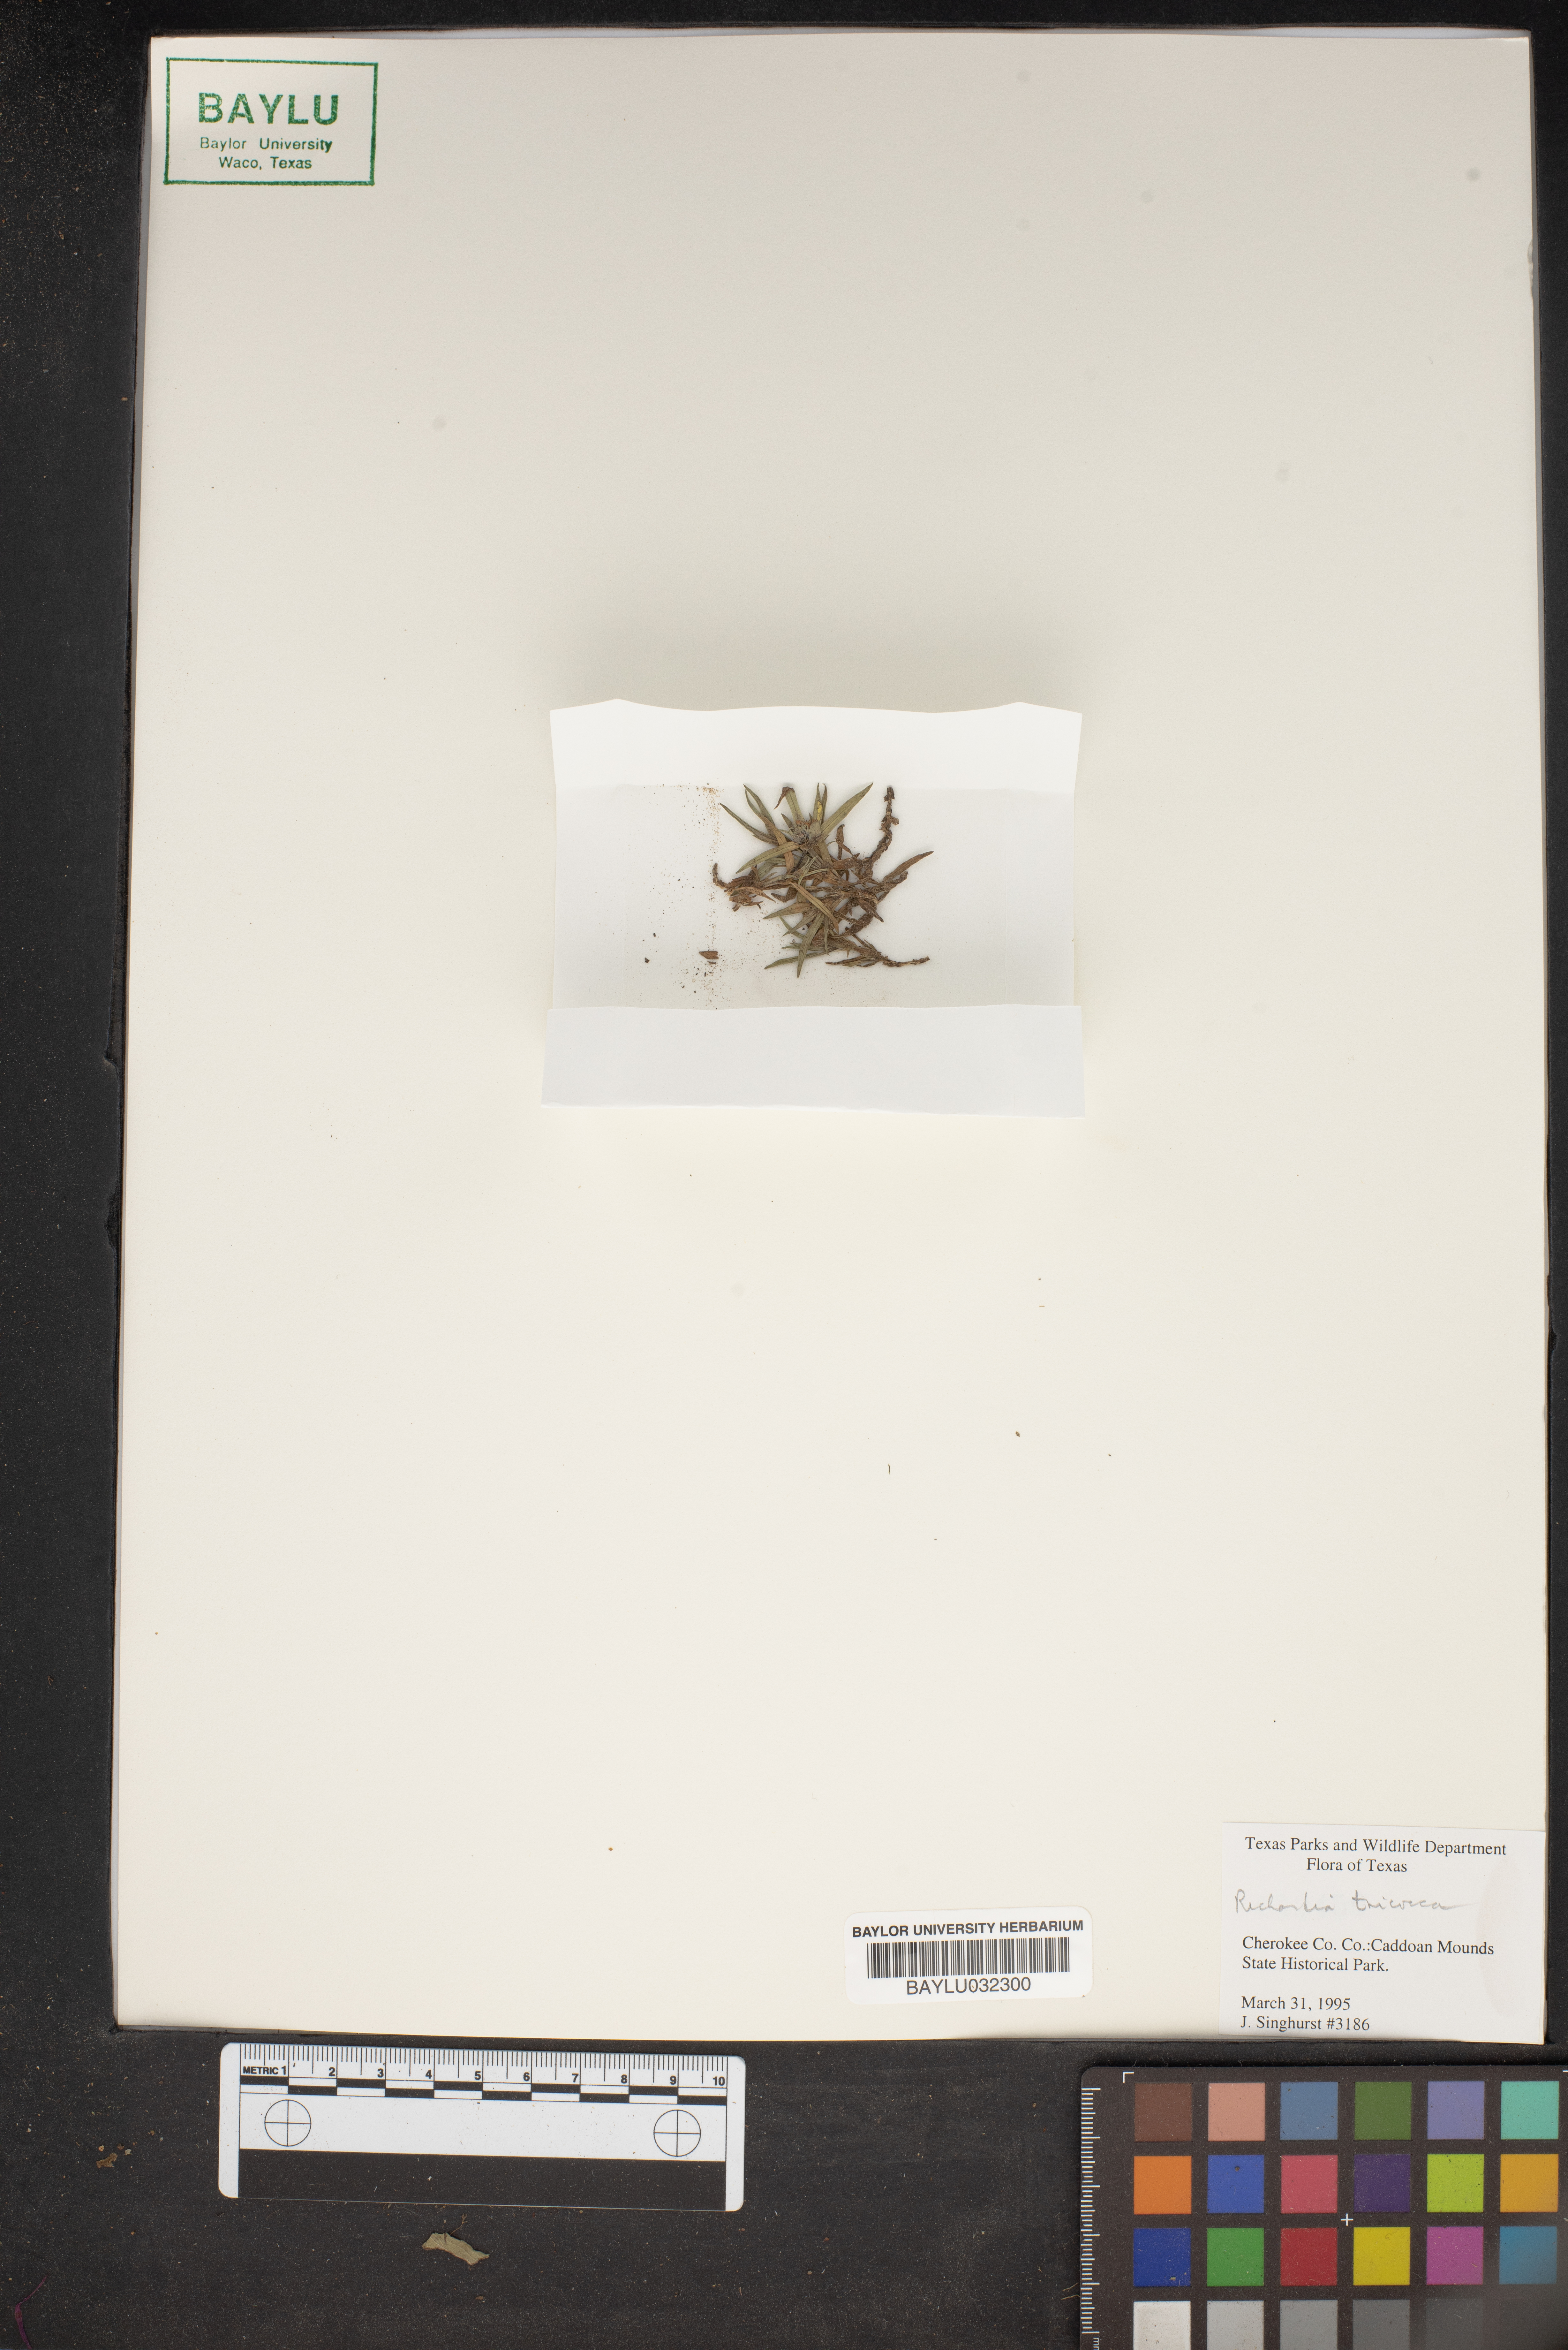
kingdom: Plantae
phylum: Tracheophyta
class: Magnoliopsida
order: Gentianales
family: Rubiaceae
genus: Richardia
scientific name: Richardia tricocca
